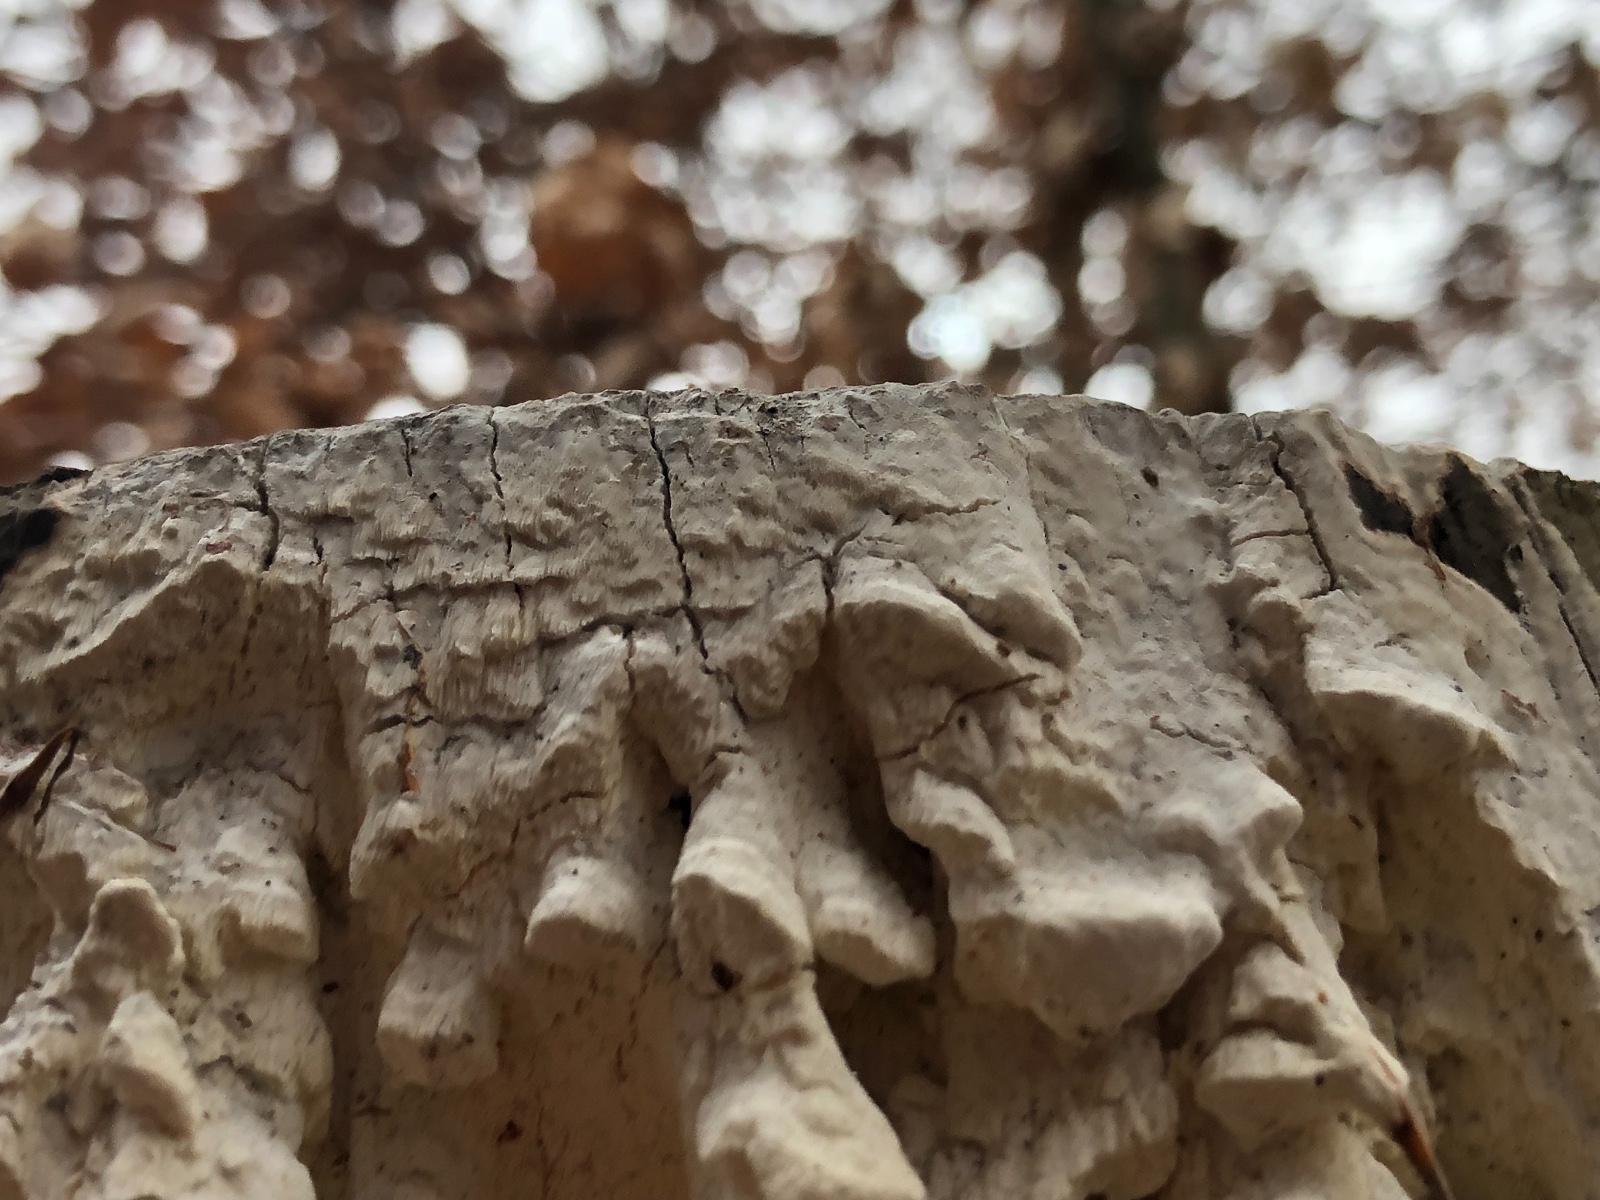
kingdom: Fungi
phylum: Basidiomycota
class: Agaricomycetes
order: Polyporales
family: Fomitopsidaceae
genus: Daedalea
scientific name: Daedalea xantha
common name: gul sejporesvamp
